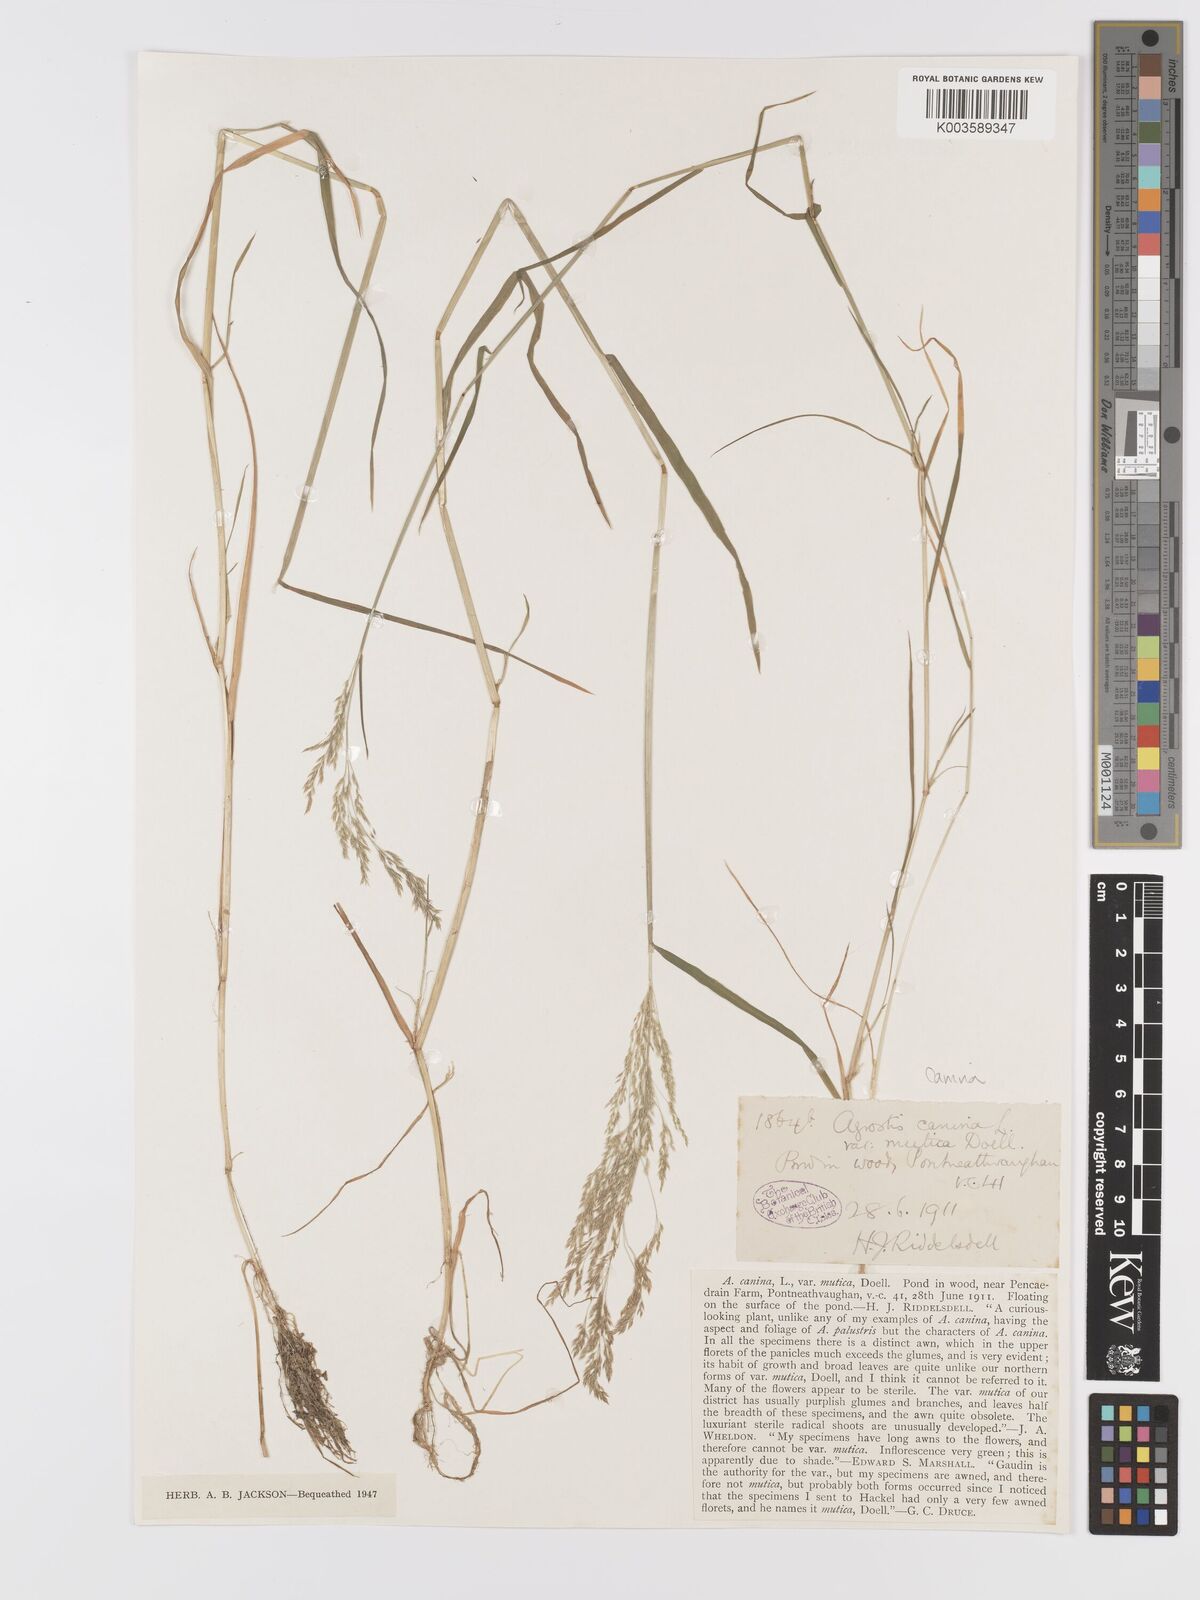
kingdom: Plantae
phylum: Tracheophyta
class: Liliopsida
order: Poales
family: Poaceae
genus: Agrostis
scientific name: Agrostis canina
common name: Velvet bent
